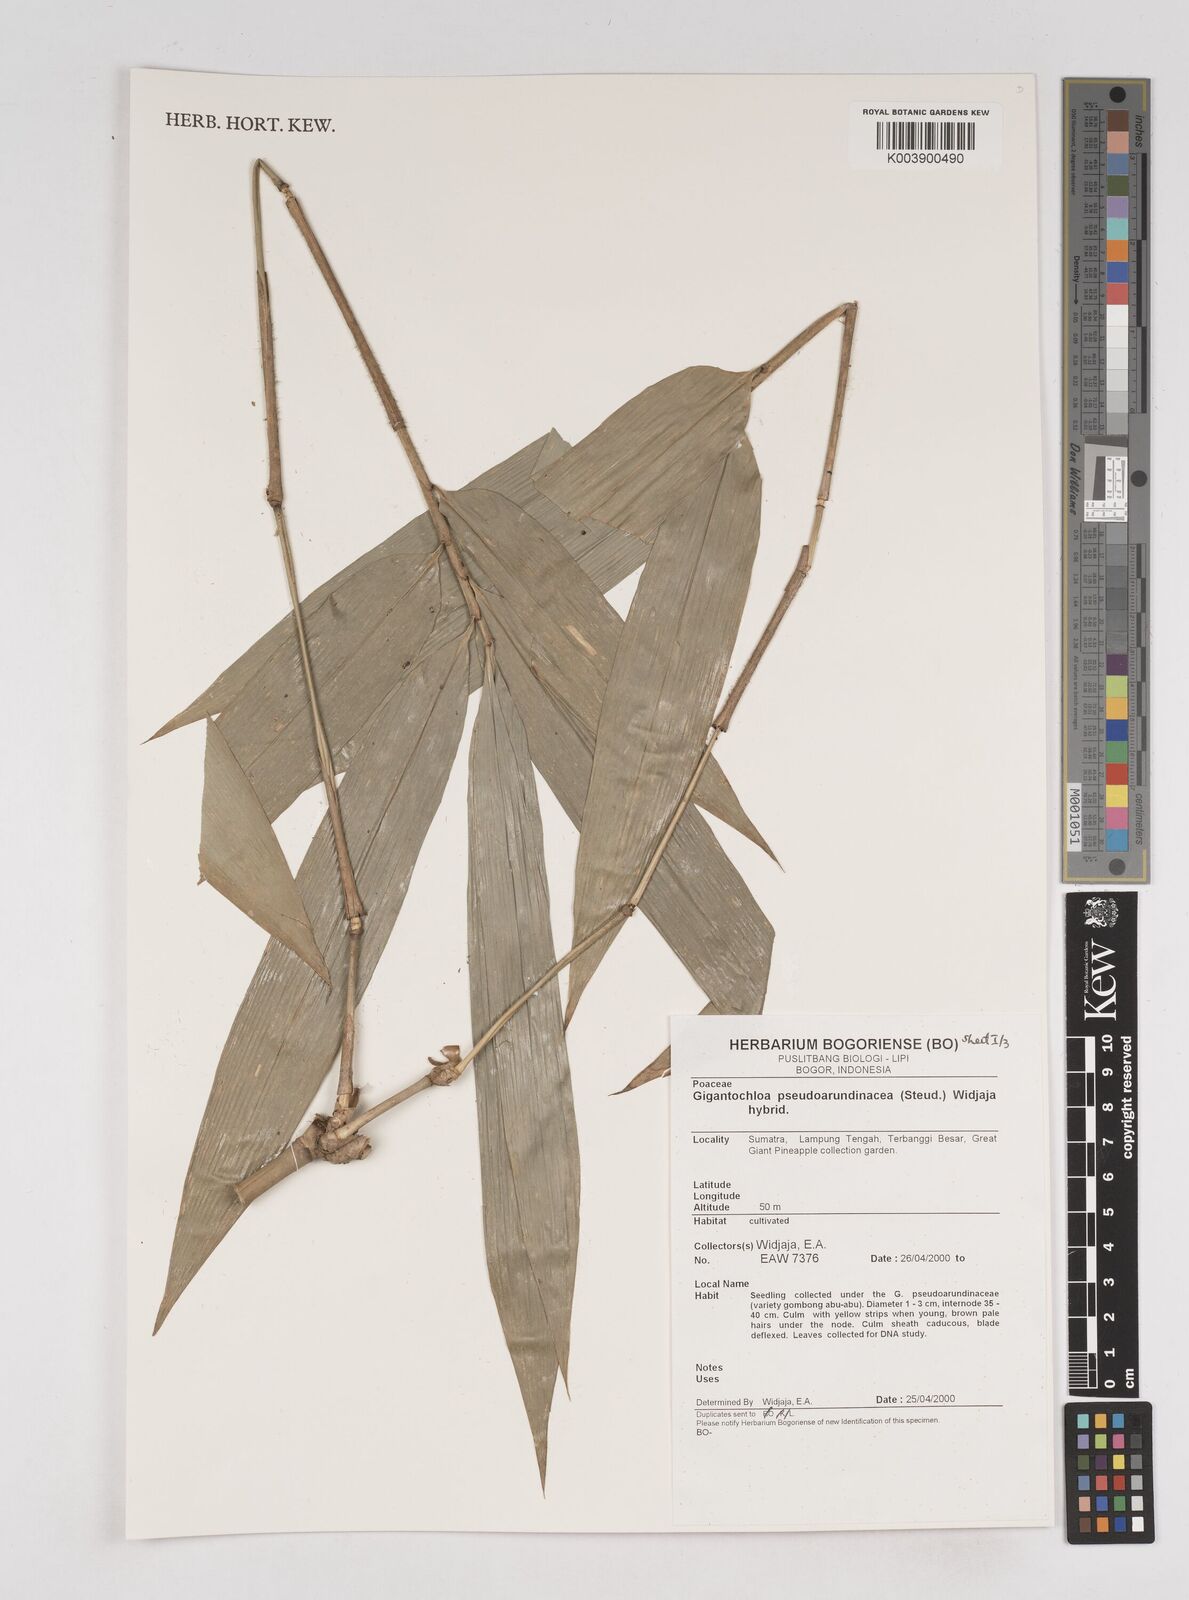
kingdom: Plantae
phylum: Tracheophyta
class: Liliopsida
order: Poales
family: Poaceae
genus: Gigantochloa
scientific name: Gigantochloa verticillata
